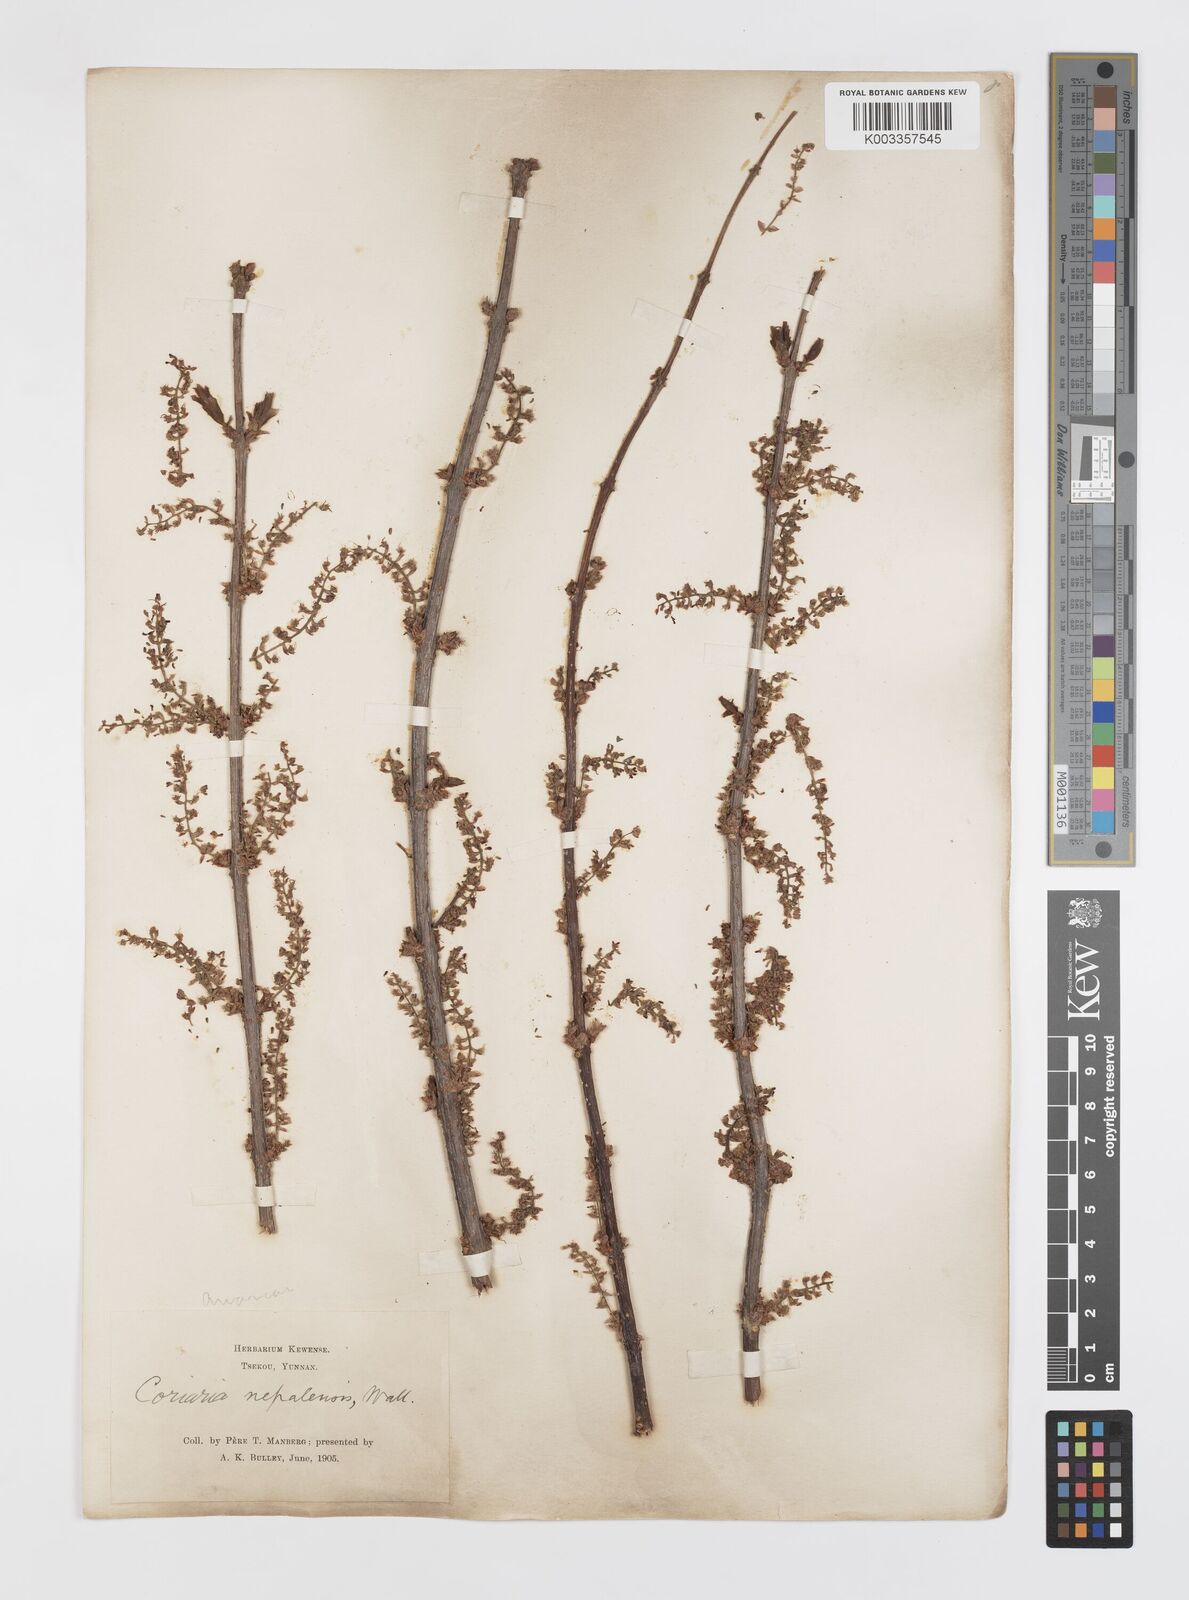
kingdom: Plantae
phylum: Tracheophyta
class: Magnoliopsida
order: Cucurbitales
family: Coriariaceae
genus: Coriaria
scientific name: Coriaria napalensis
